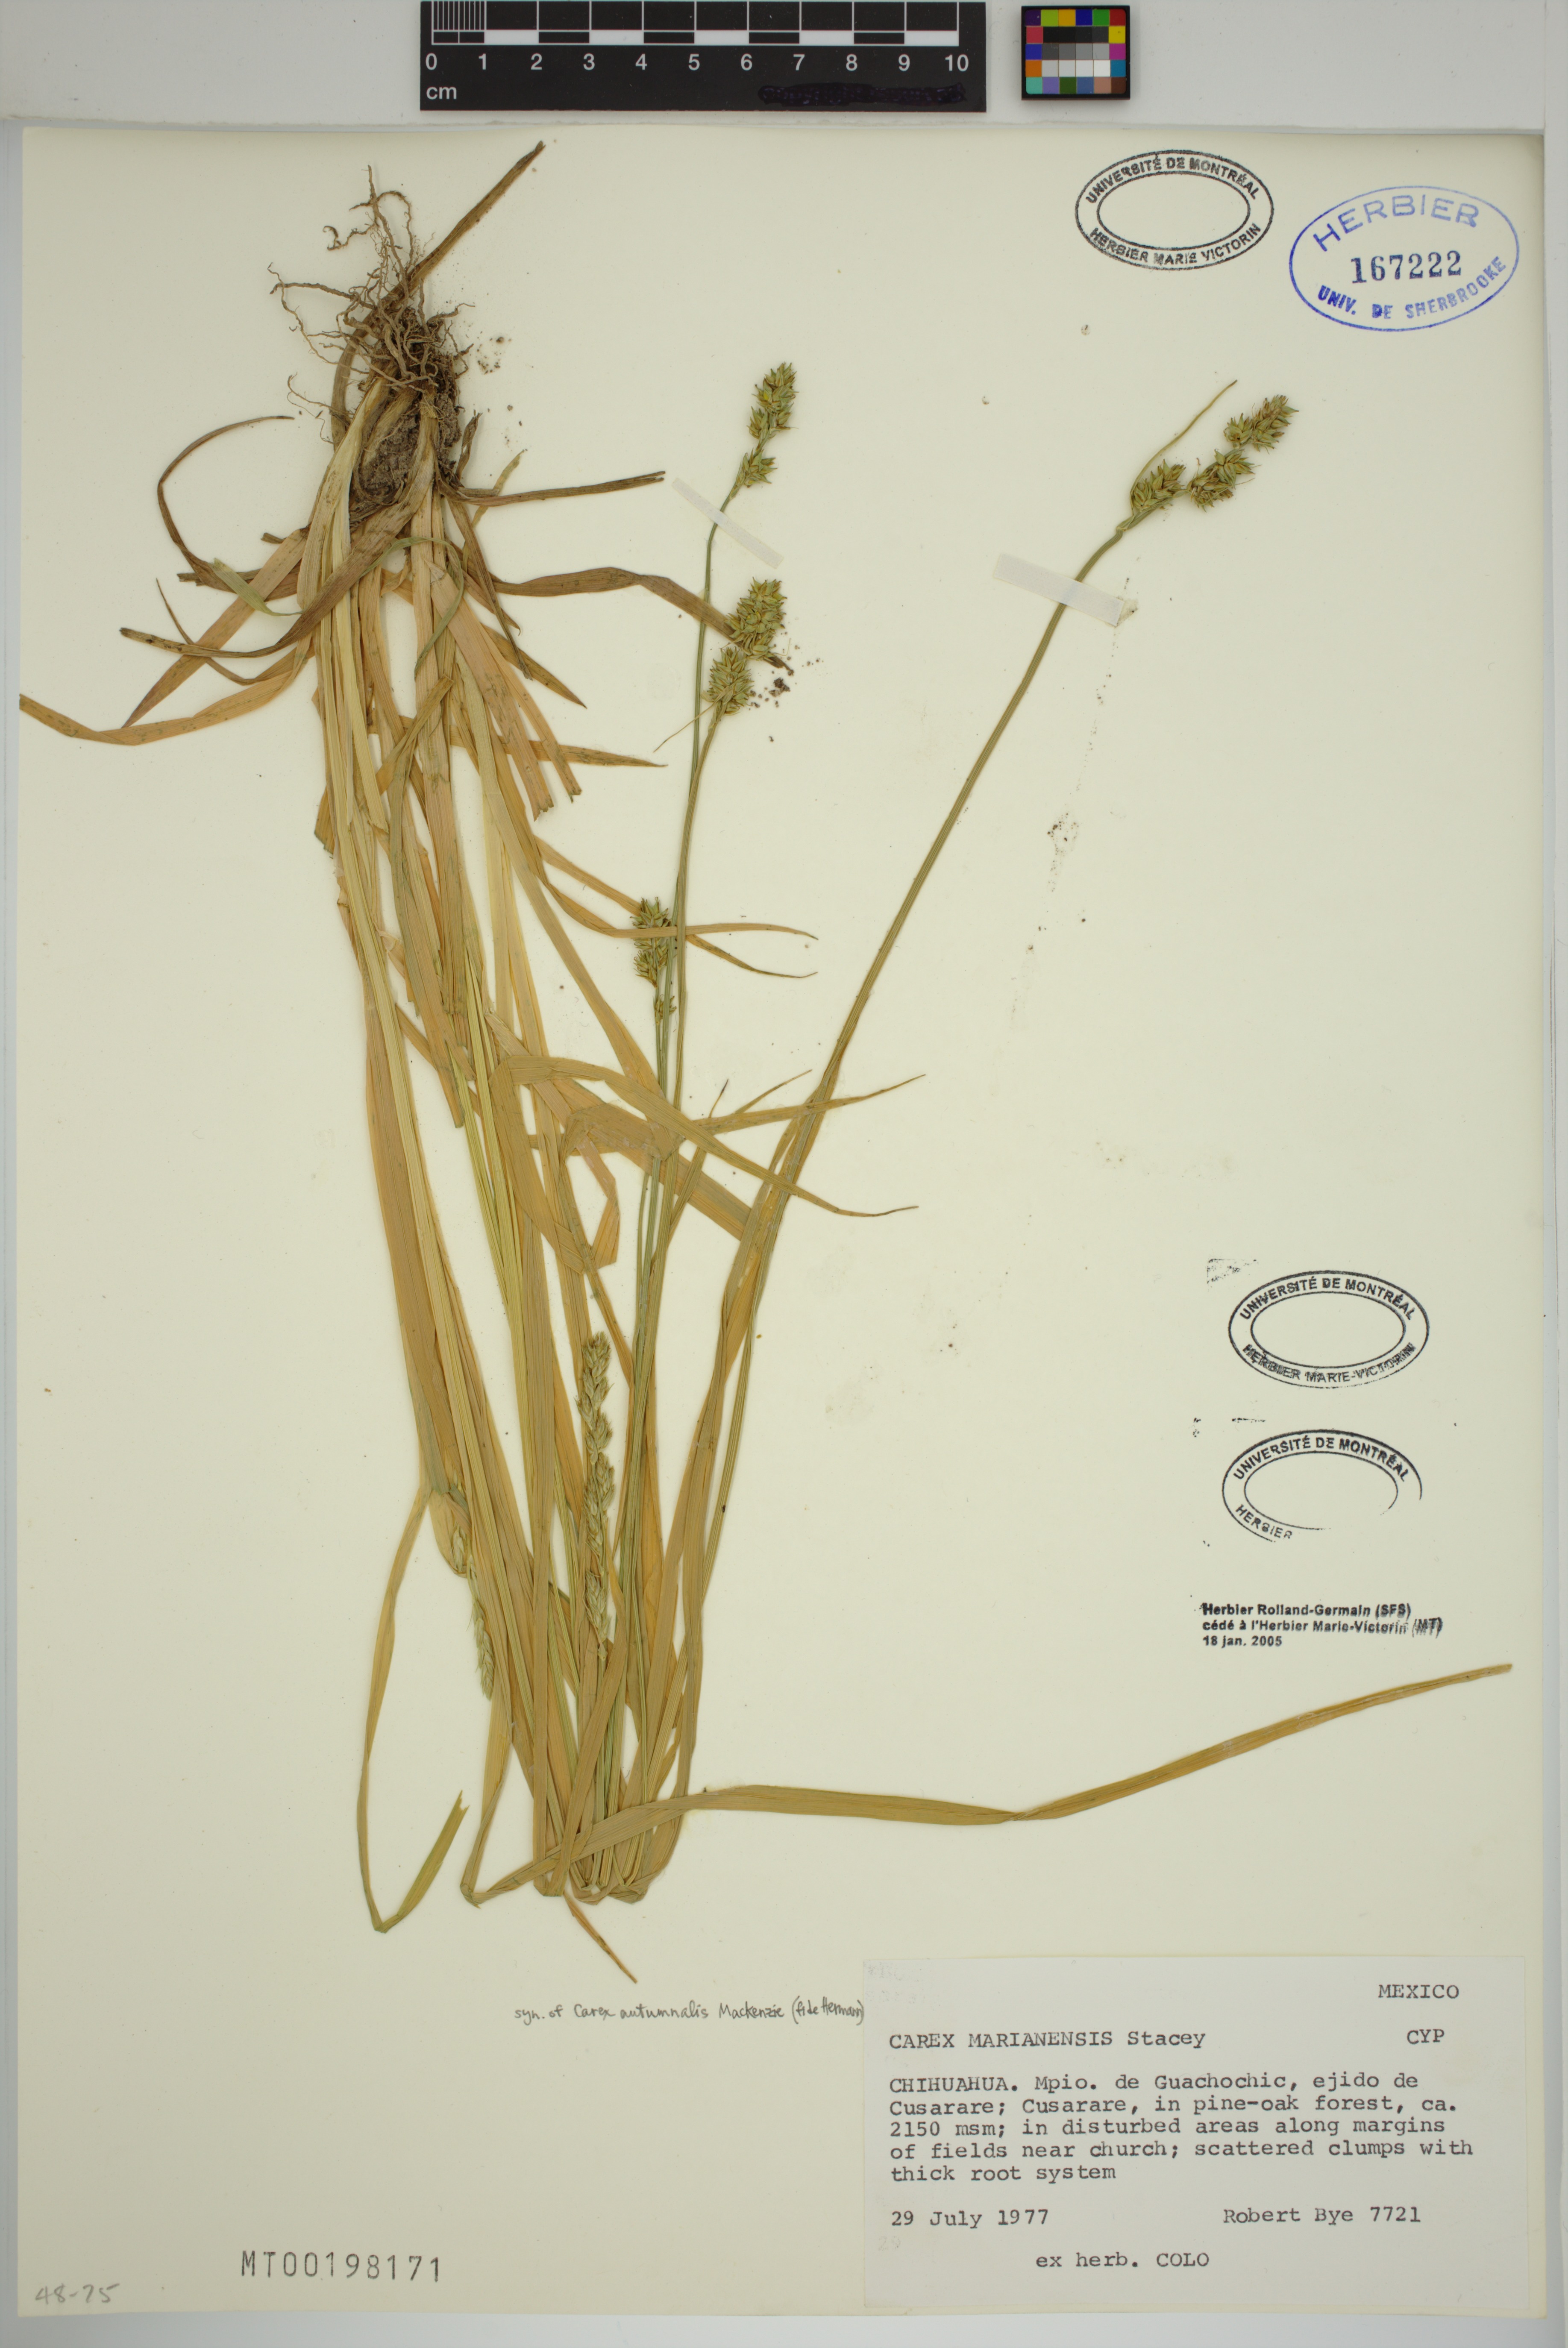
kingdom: Plantae
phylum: Tracheophyta
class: Liliopsida
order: Poales
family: Cyperaceae
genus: Carex
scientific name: Carex marianensis
